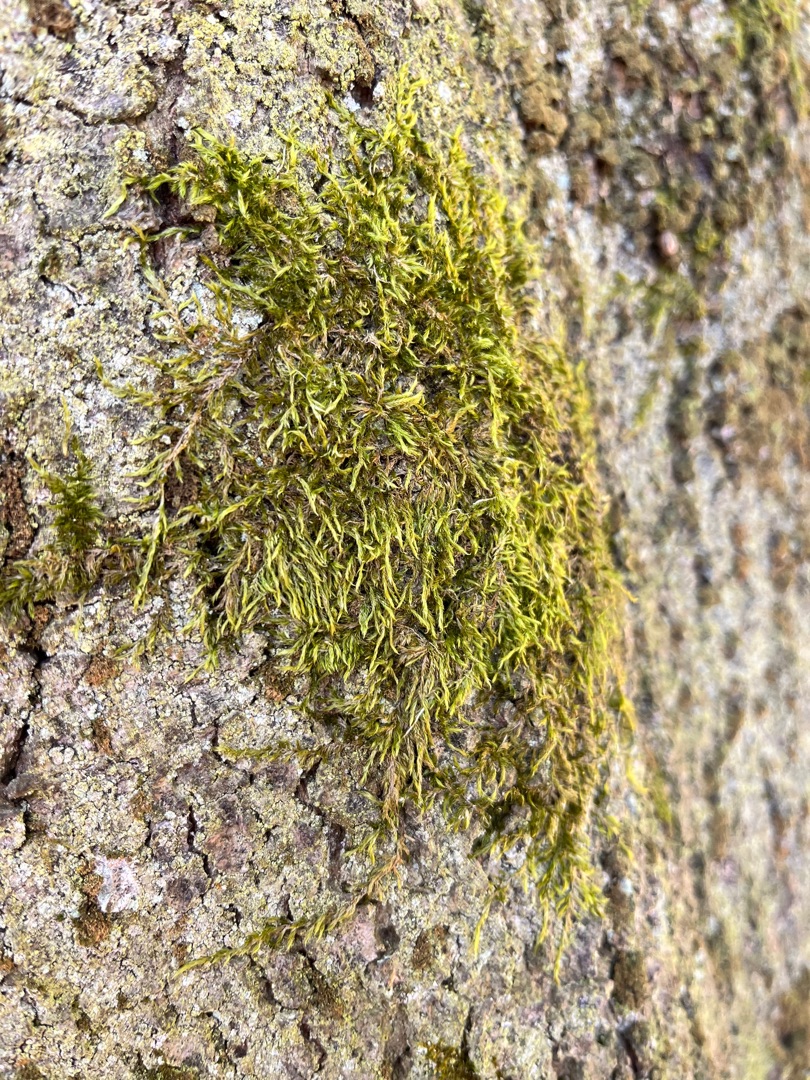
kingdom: Plantae
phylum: Bryophyta
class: Bryopsida
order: Hypnales
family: Hypnaceae
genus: Hypnum
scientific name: Hypnum
